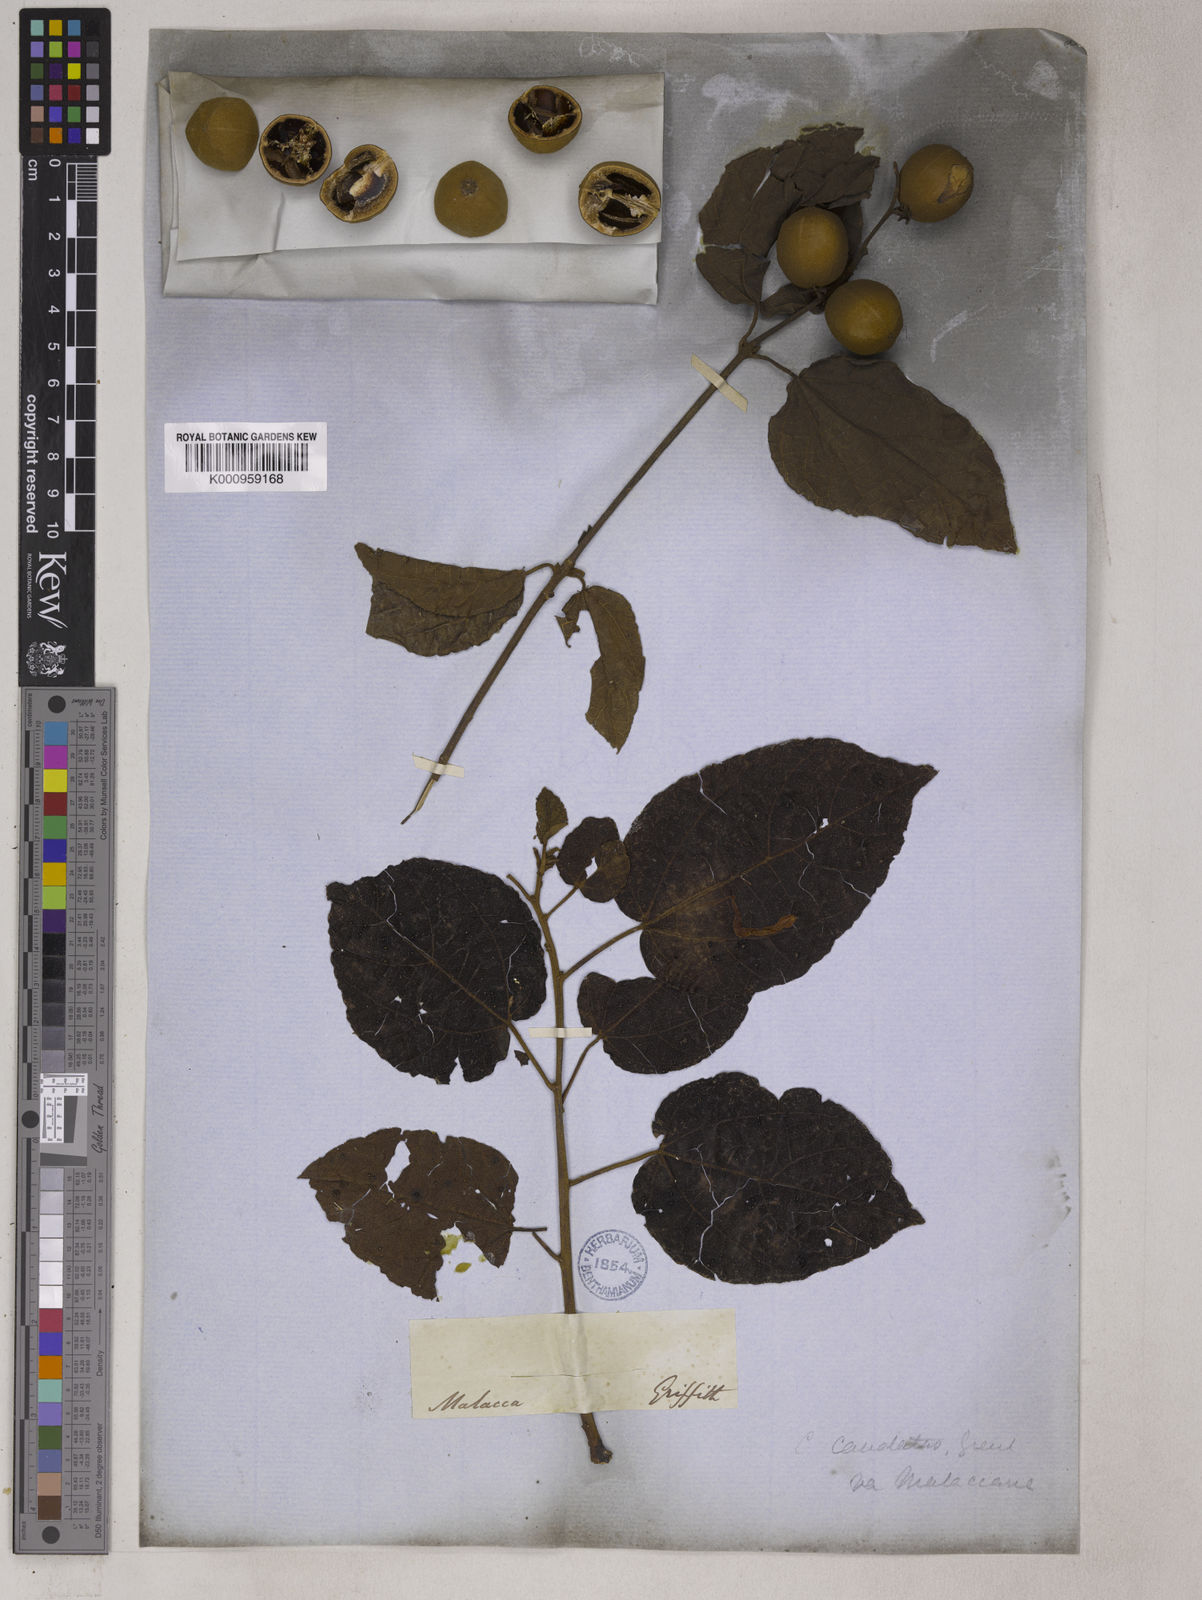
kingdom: Plantae
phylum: Tracheophyta
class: Magnoliopsida
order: Malpighiales
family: Euphorbiaceae
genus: Croton
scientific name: Croton caudatus
